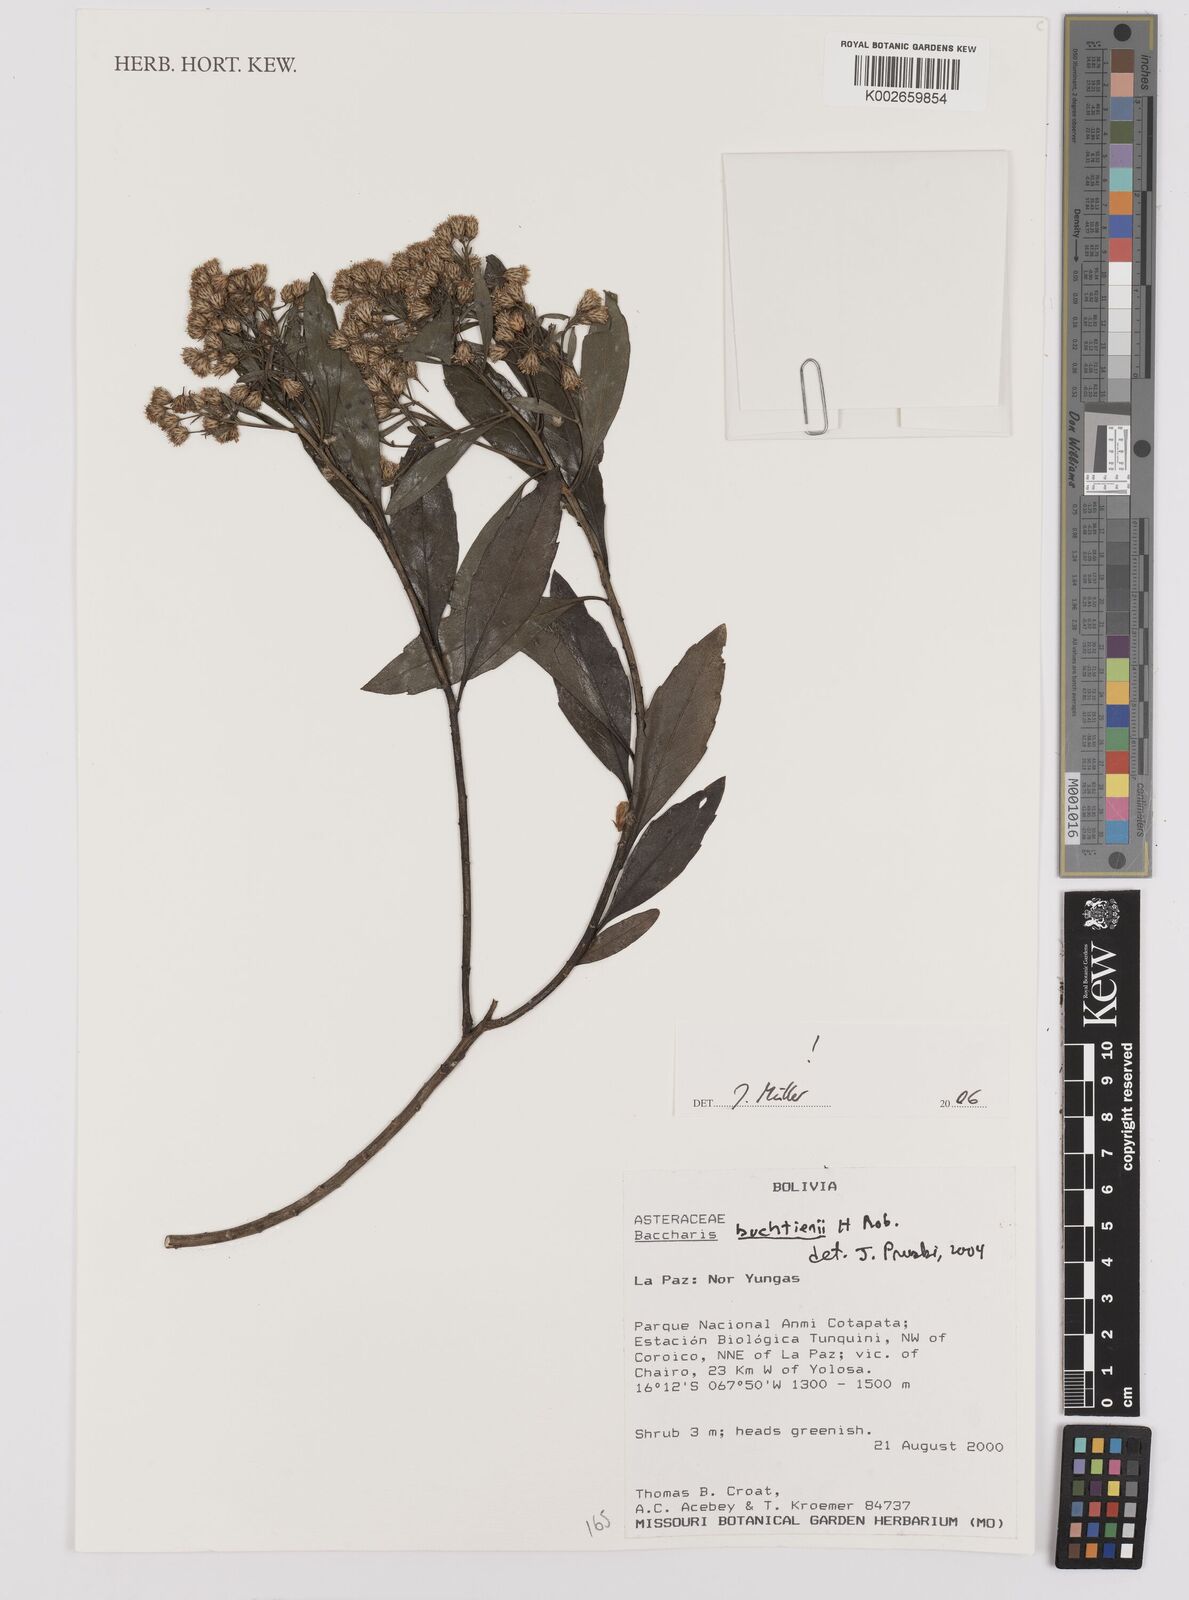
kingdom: Plantae
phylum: Tracheophyta
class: Magnoliopsida
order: Asterales
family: Asteraceae
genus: Baccharis
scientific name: Baccharis buchtienii
